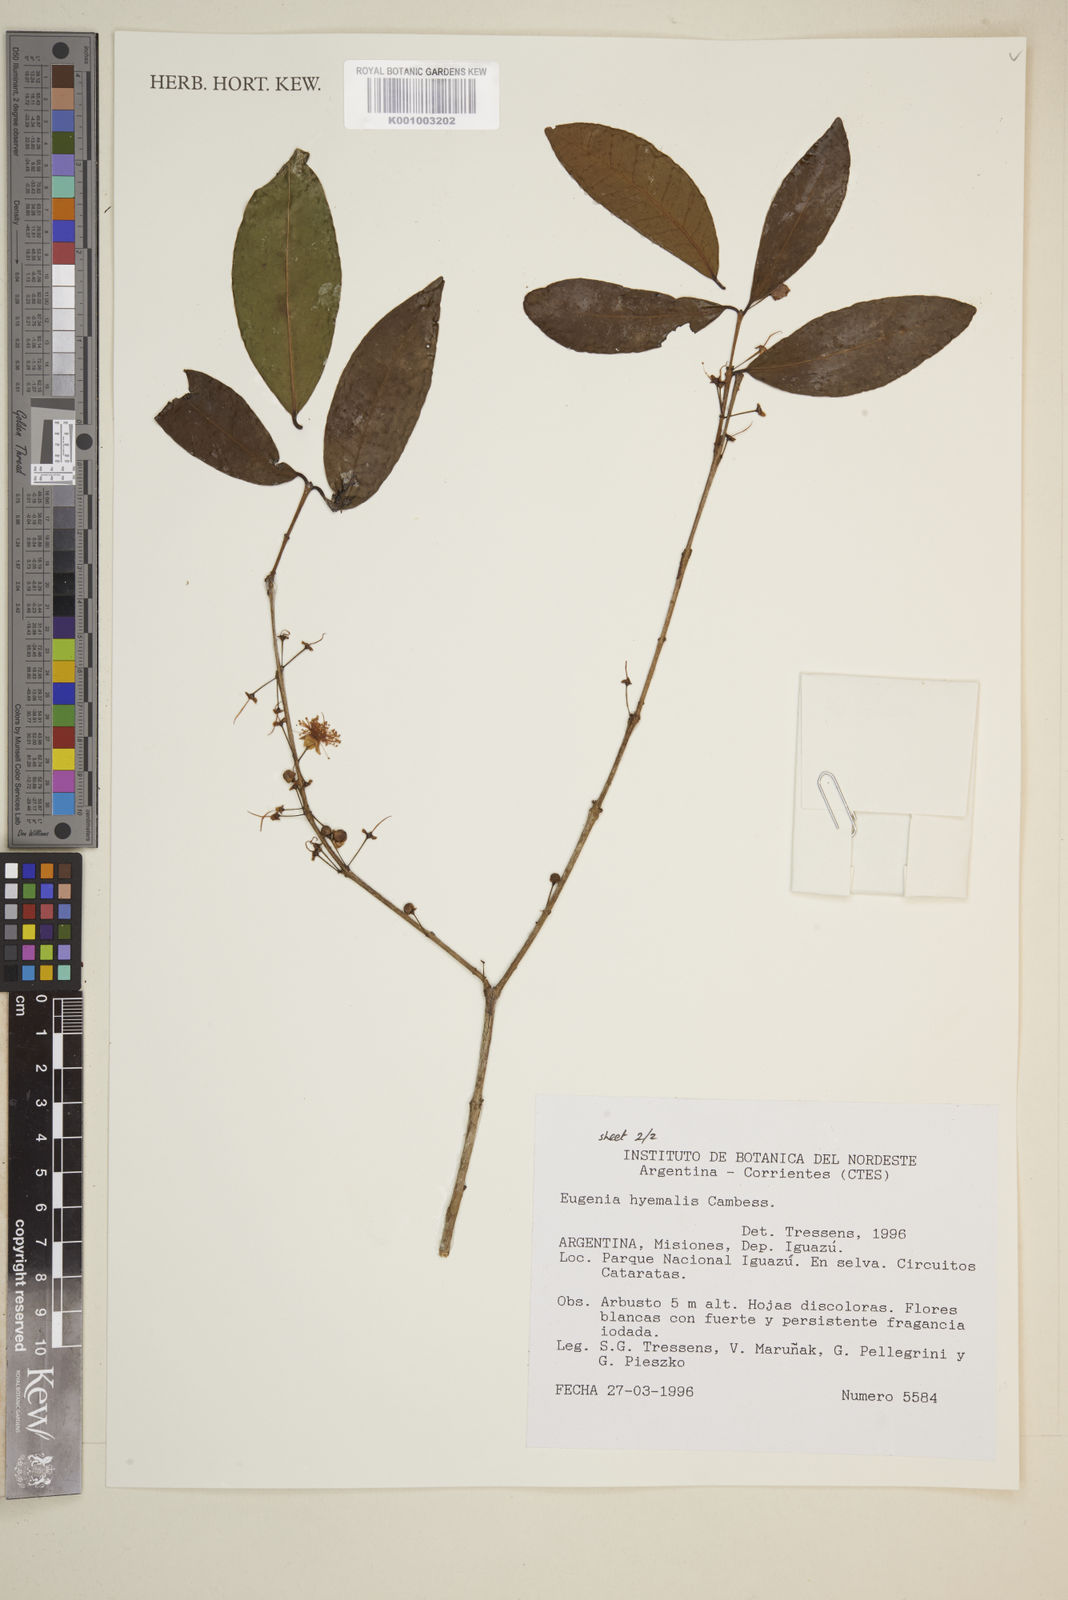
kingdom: Plantae
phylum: Tracheophyta
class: Magnoliopsida
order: Myrtales
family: Myrtaceae
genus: Eugenia
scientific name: Eugenia
